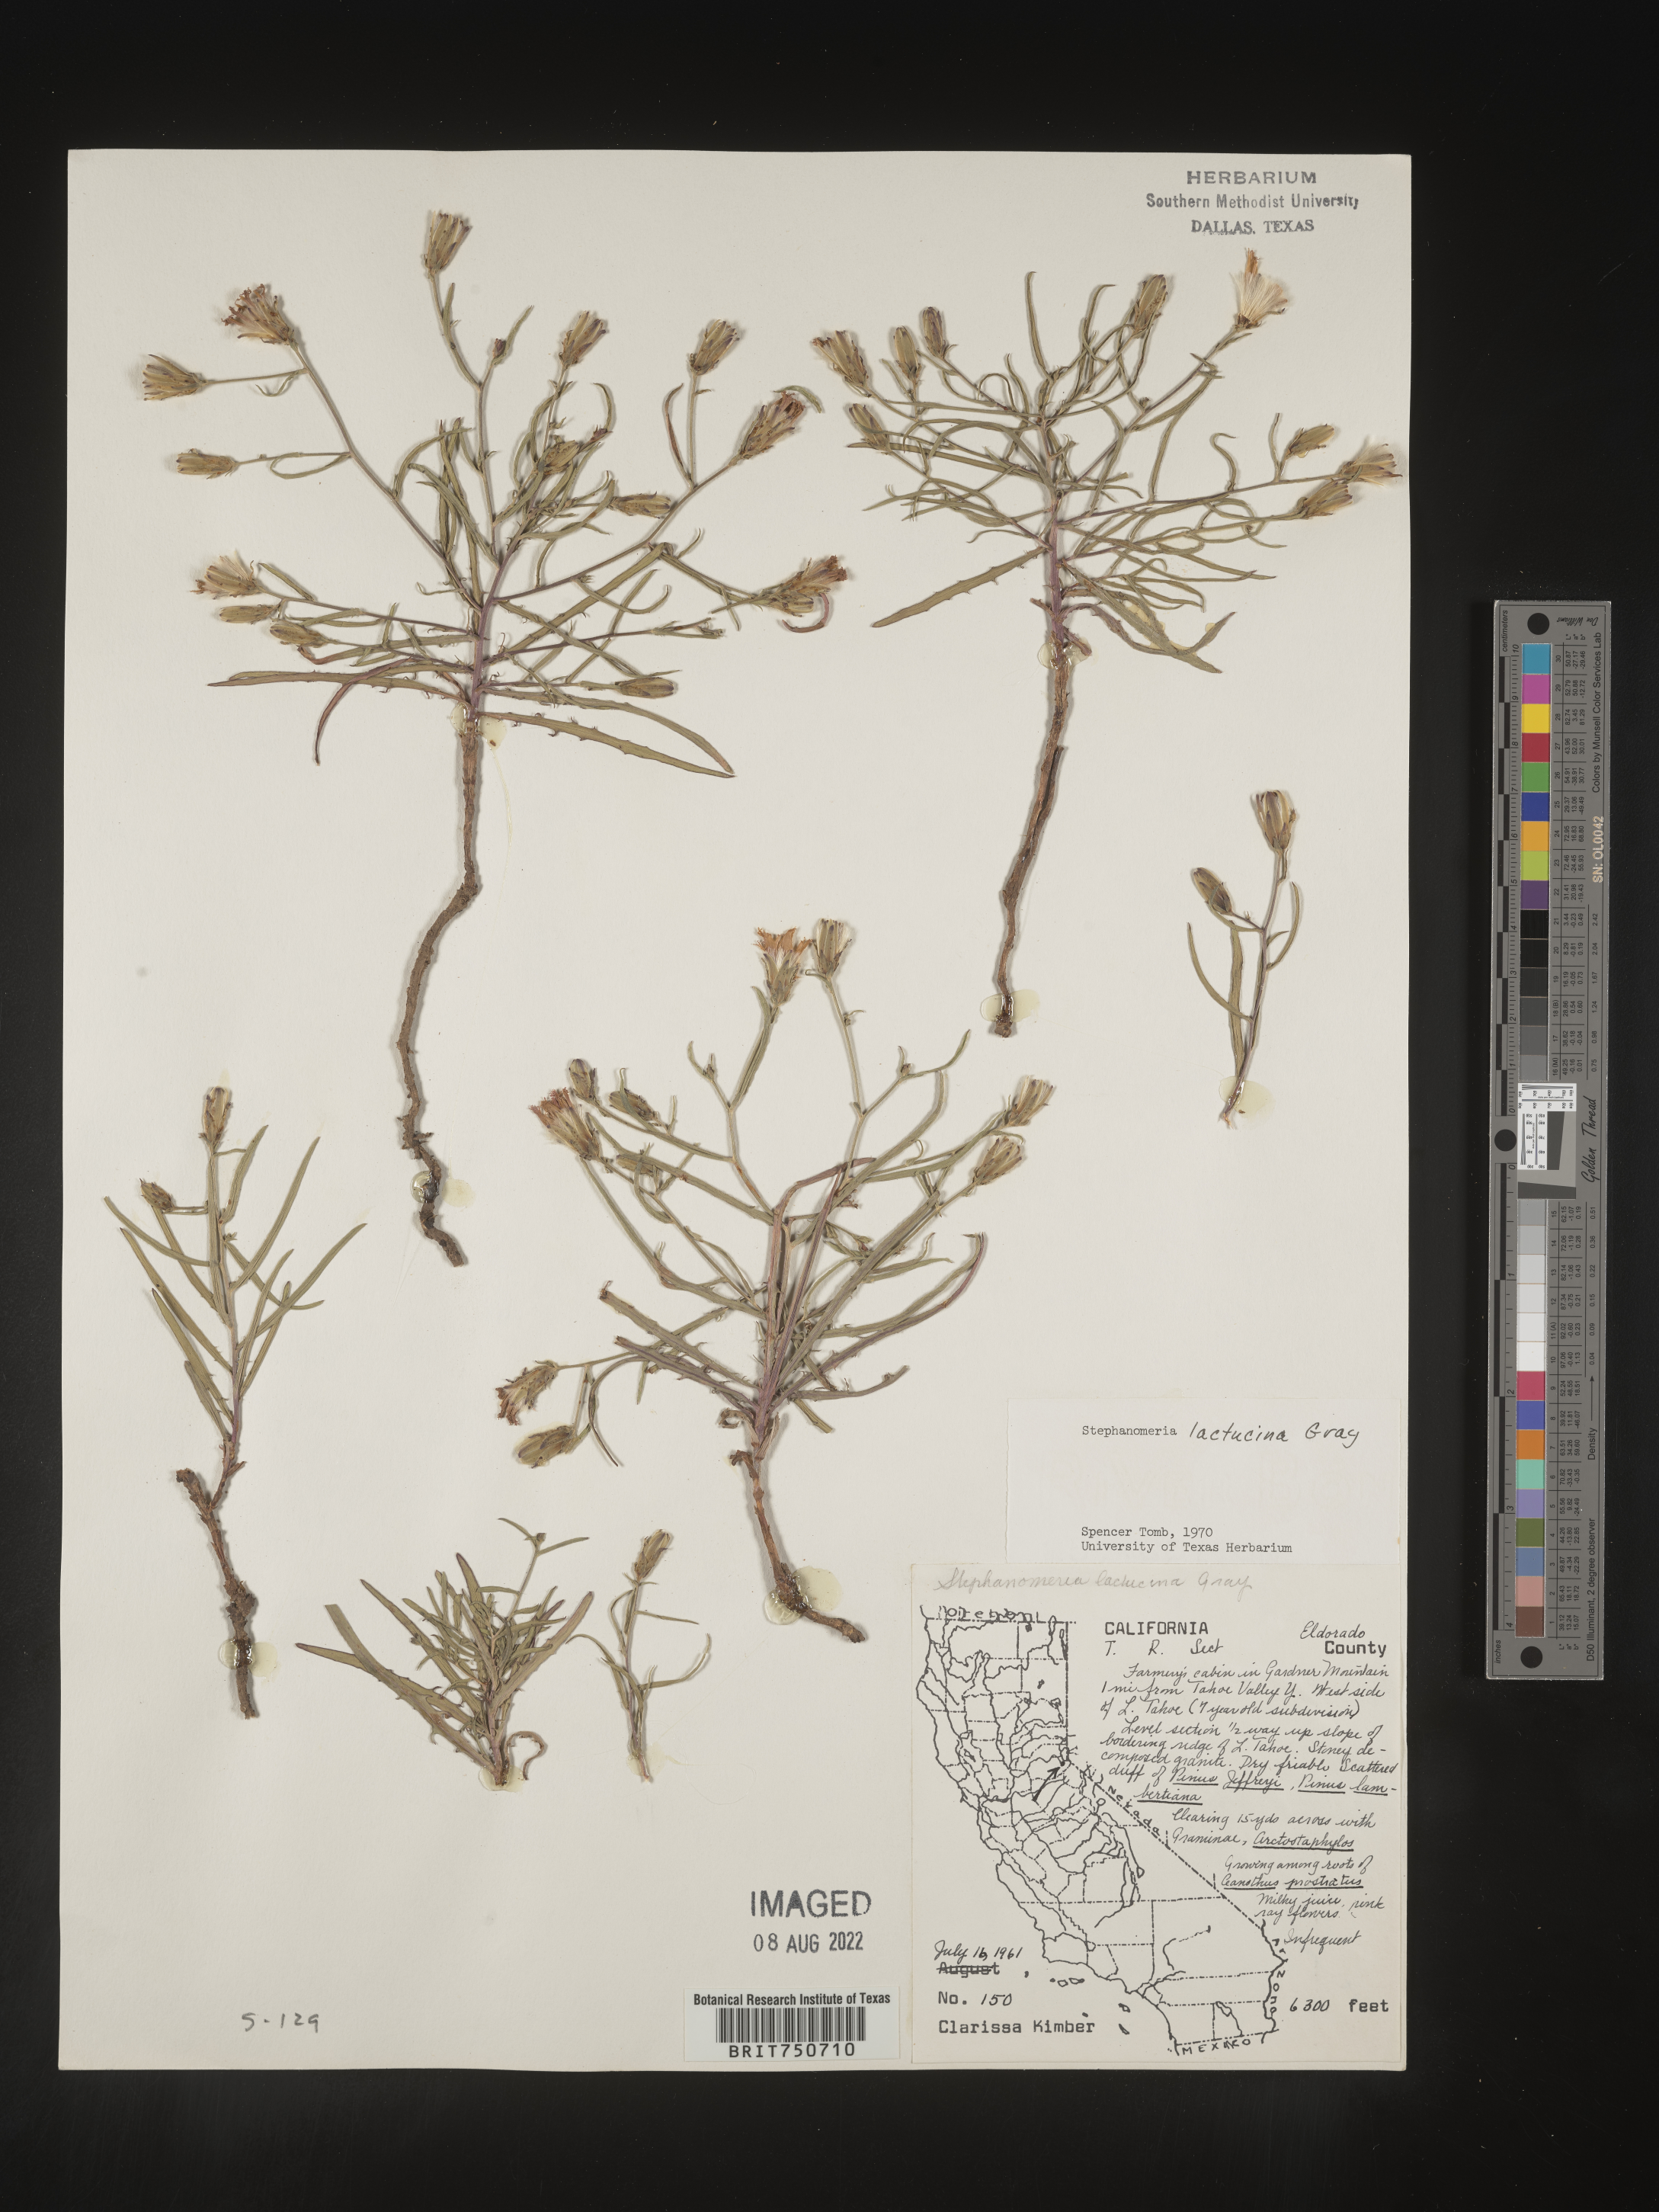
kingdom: Plantae
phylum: Tracheophyta
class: Magnoliopsida
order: Asterales
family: Asteraceae
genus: Stephanomeria
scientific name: Stephanomeria lactucina
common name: Large-flowered wirelettuce
